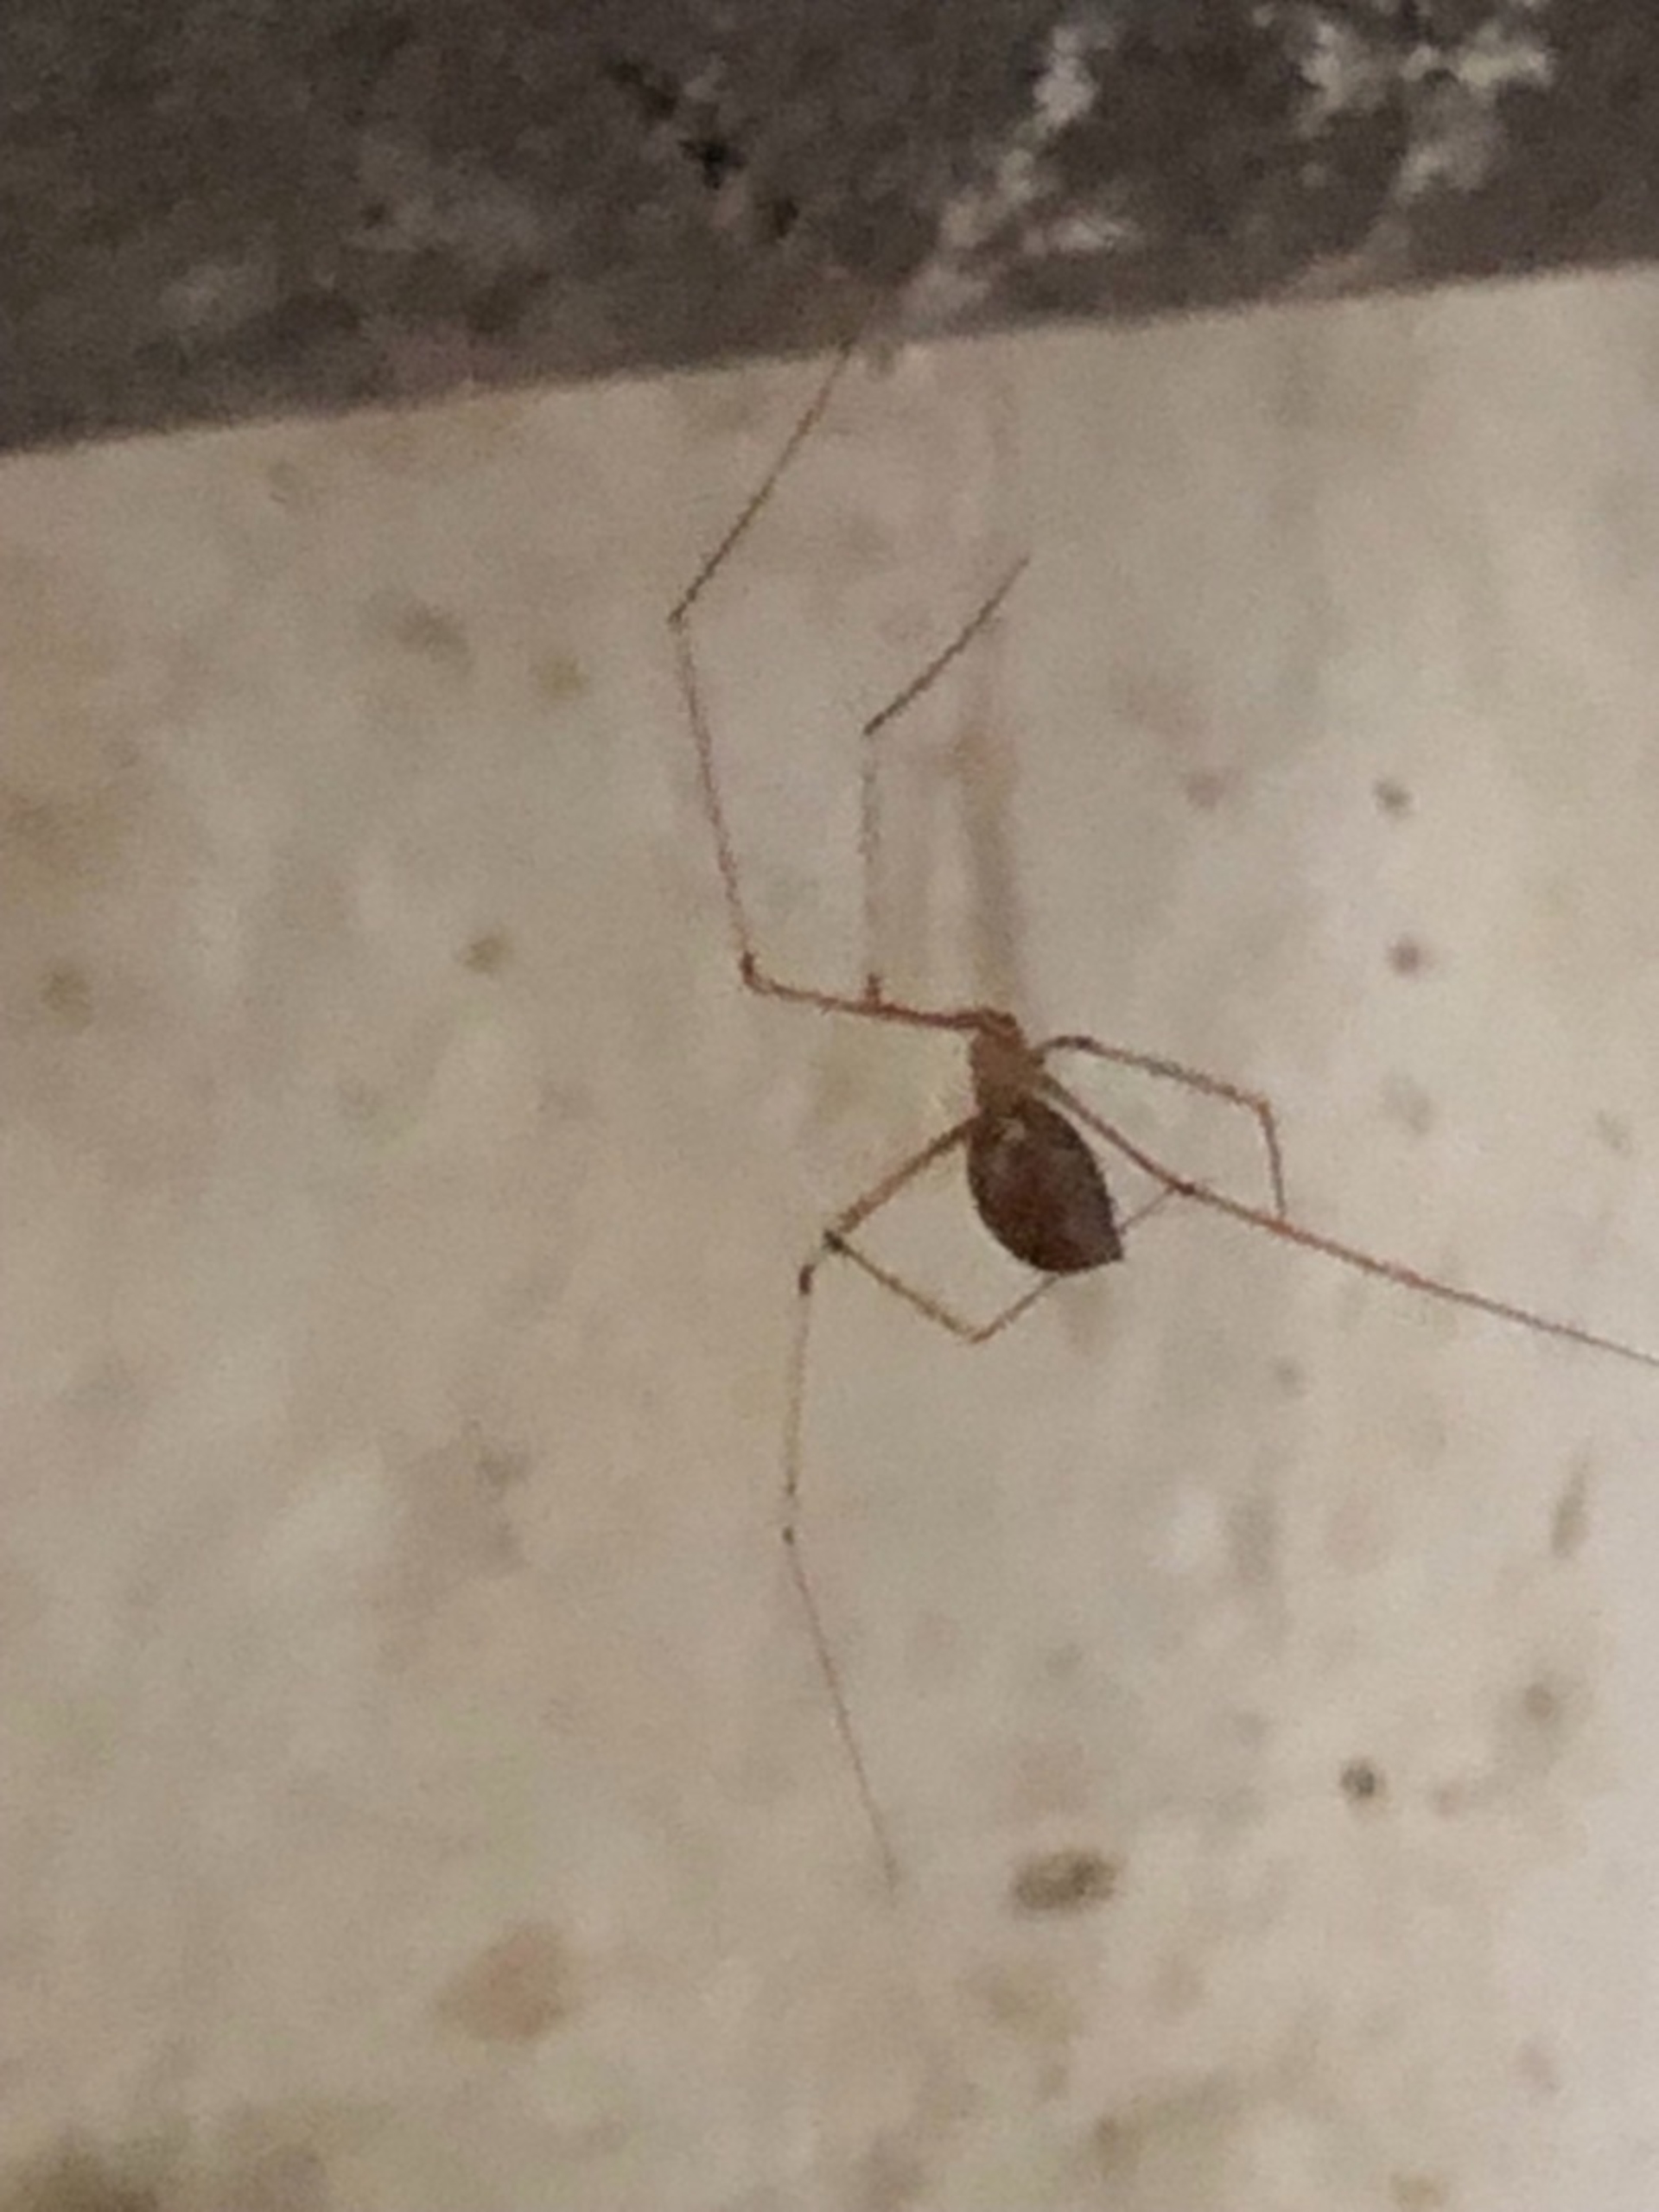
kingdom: Animalia
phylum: Arthropoda
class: Arachnida
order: Araneae
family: Pholcidae
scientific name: Pholcidae
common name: Mejeredderkopper
